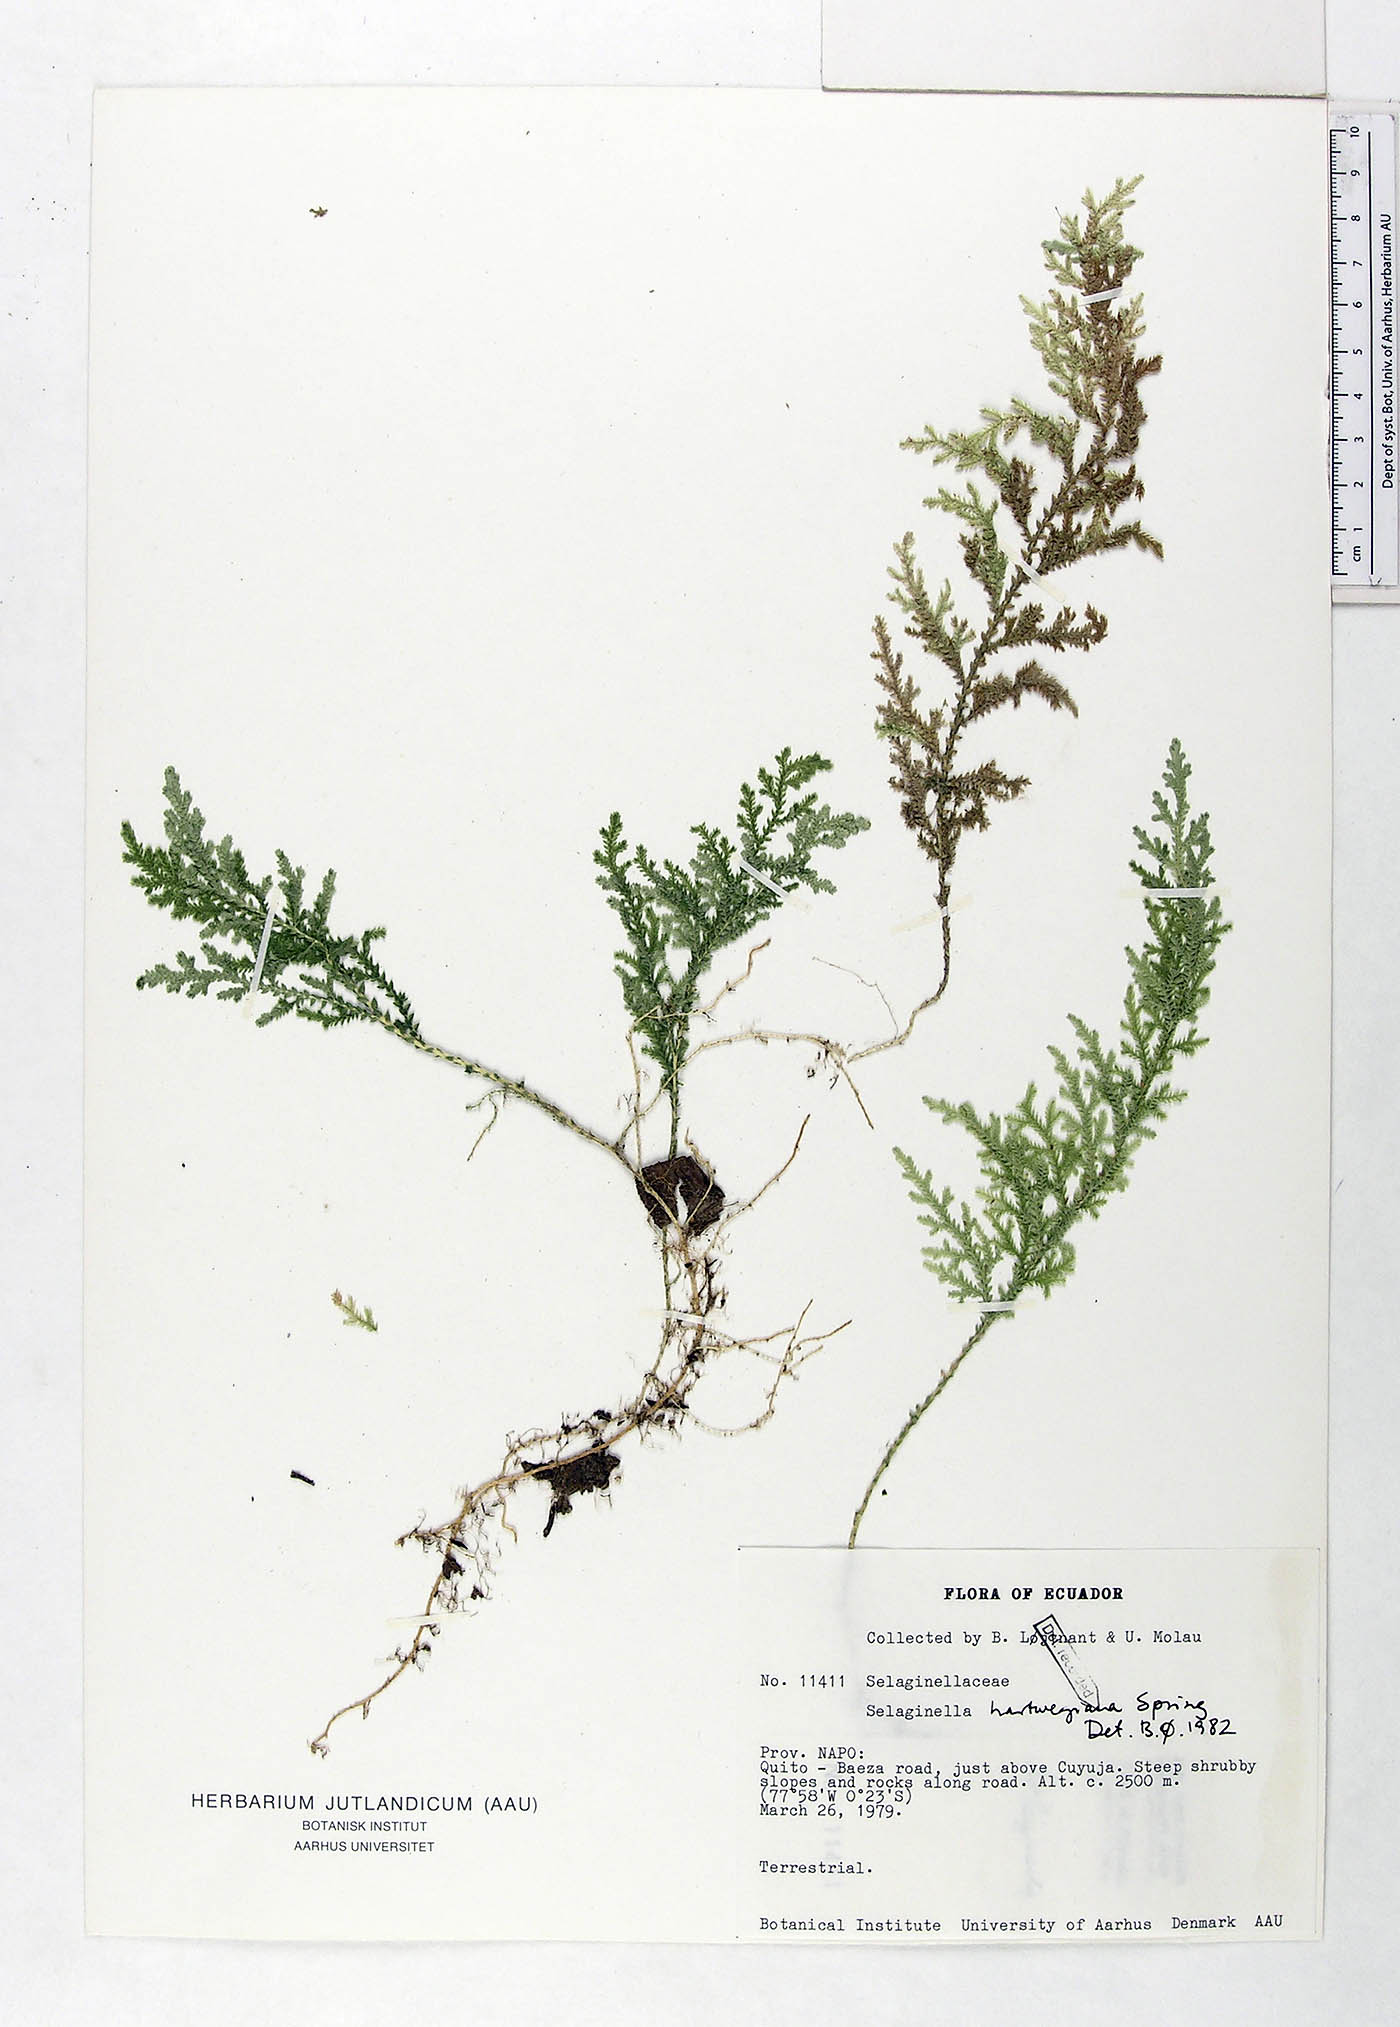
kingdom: Plantae
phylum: Tracheophyta
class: Lycopodiopsida
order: Selaginellales
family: Selaginellaceae
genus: Selaginella
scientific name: Selaginella hartwegiana
